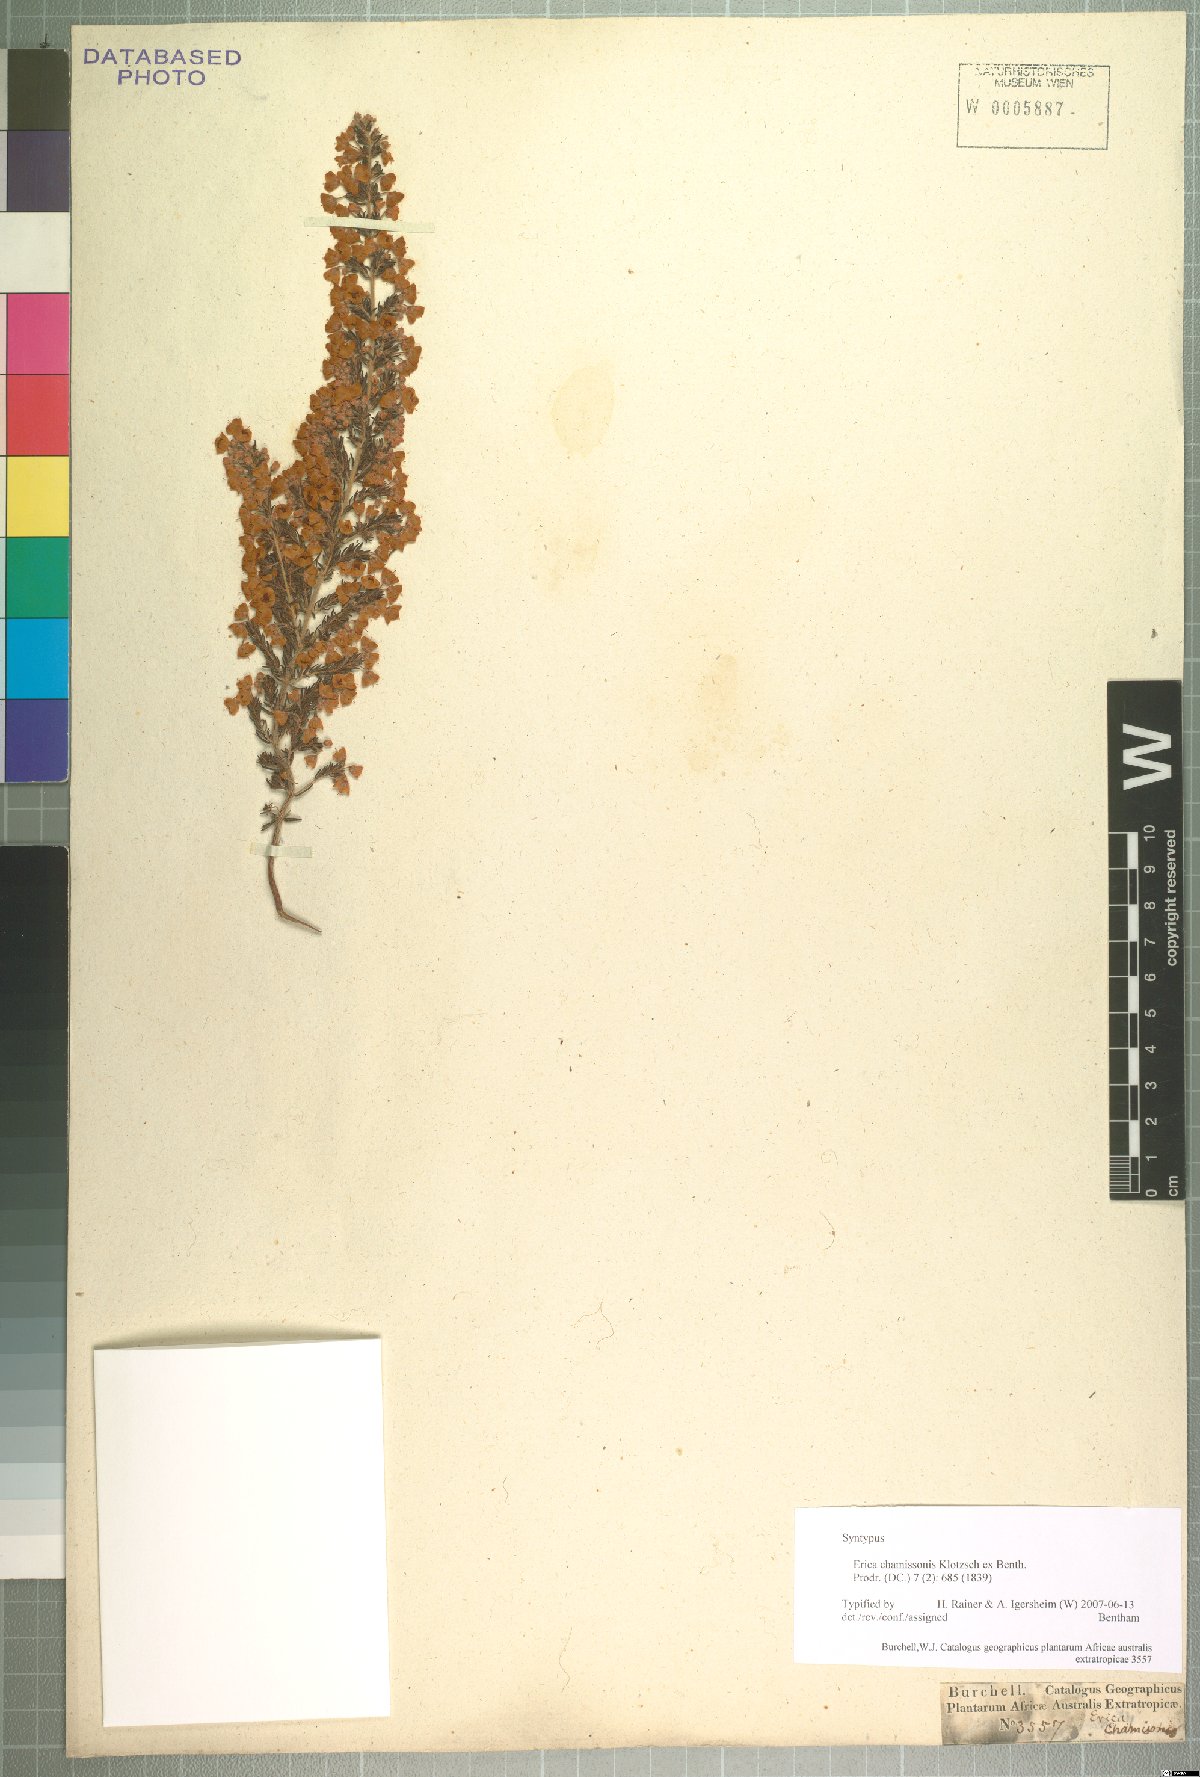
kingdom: Plantae
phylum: Tracheophyta
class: Magnoliopsida
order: Ericales
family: Ericaceae
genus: Erica
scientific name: Erica chamissonis
